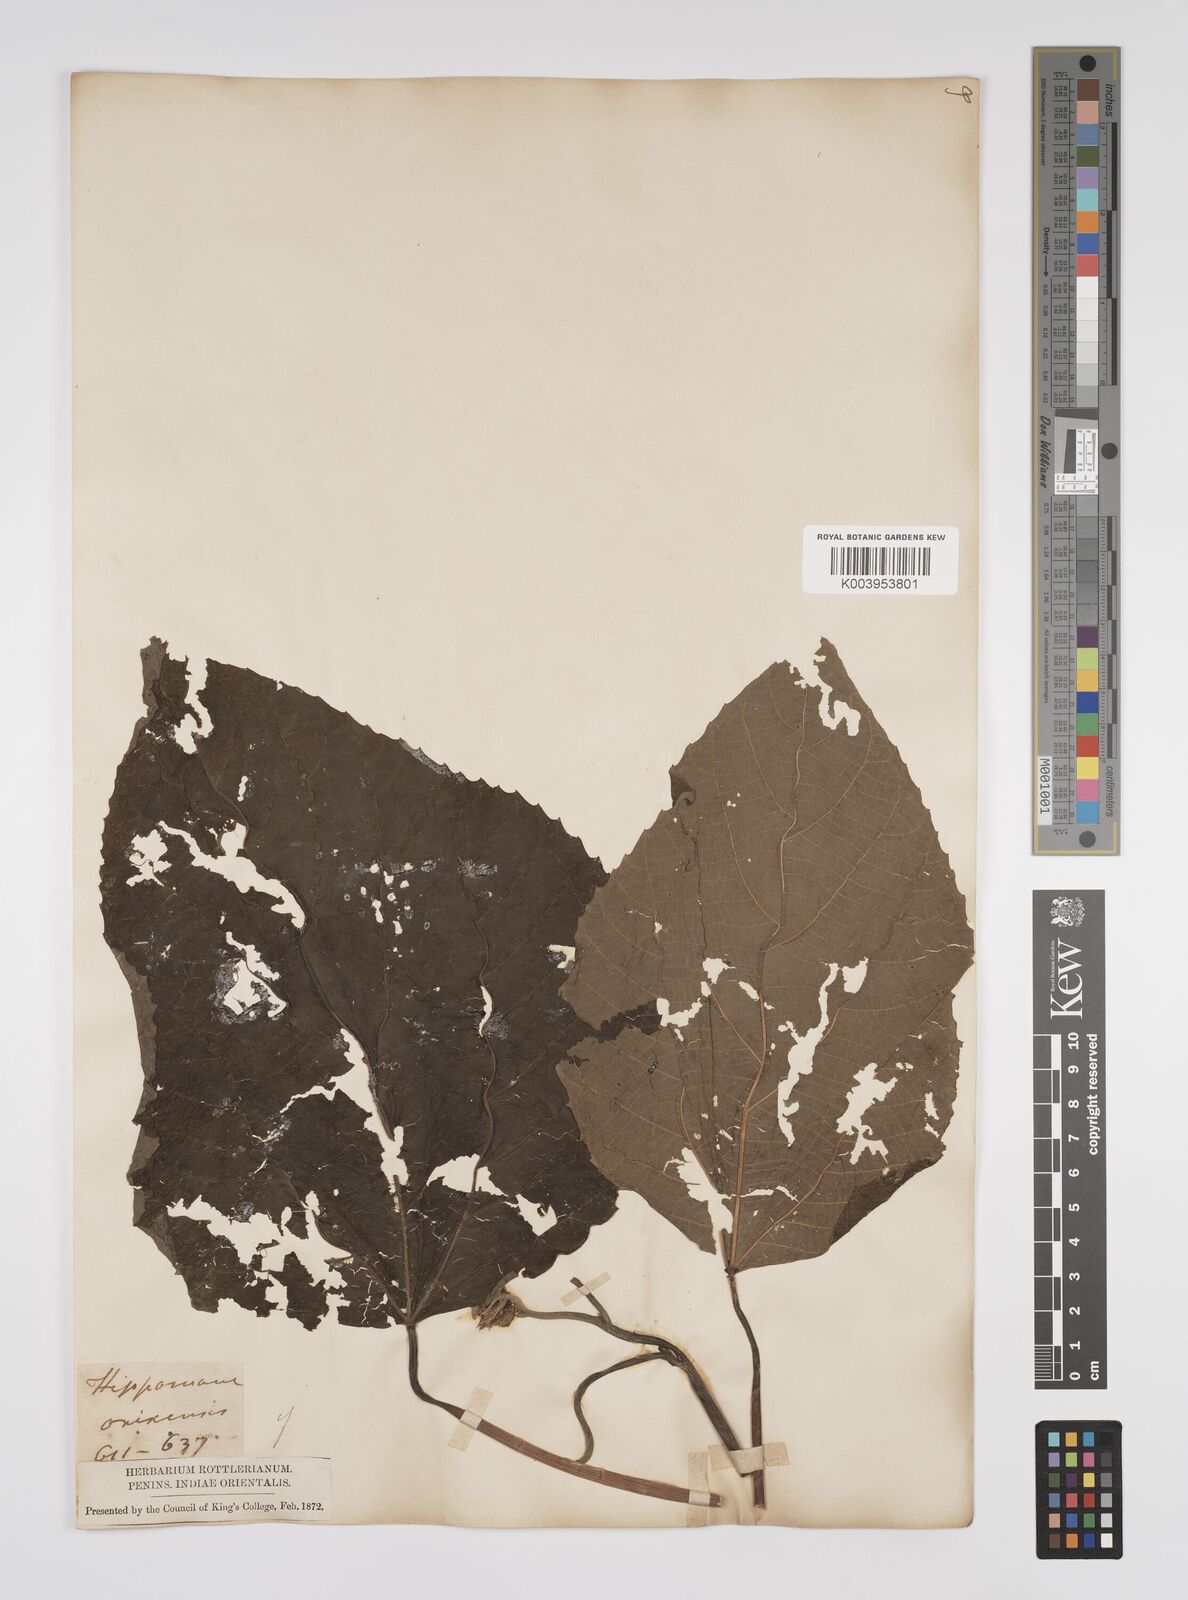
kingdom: Plantae
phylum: Tracheophyta
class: Magnoliopsida
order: Malpighiales
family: Euphorbiaceae
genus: Alchornea
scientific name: Alchornea mollis
